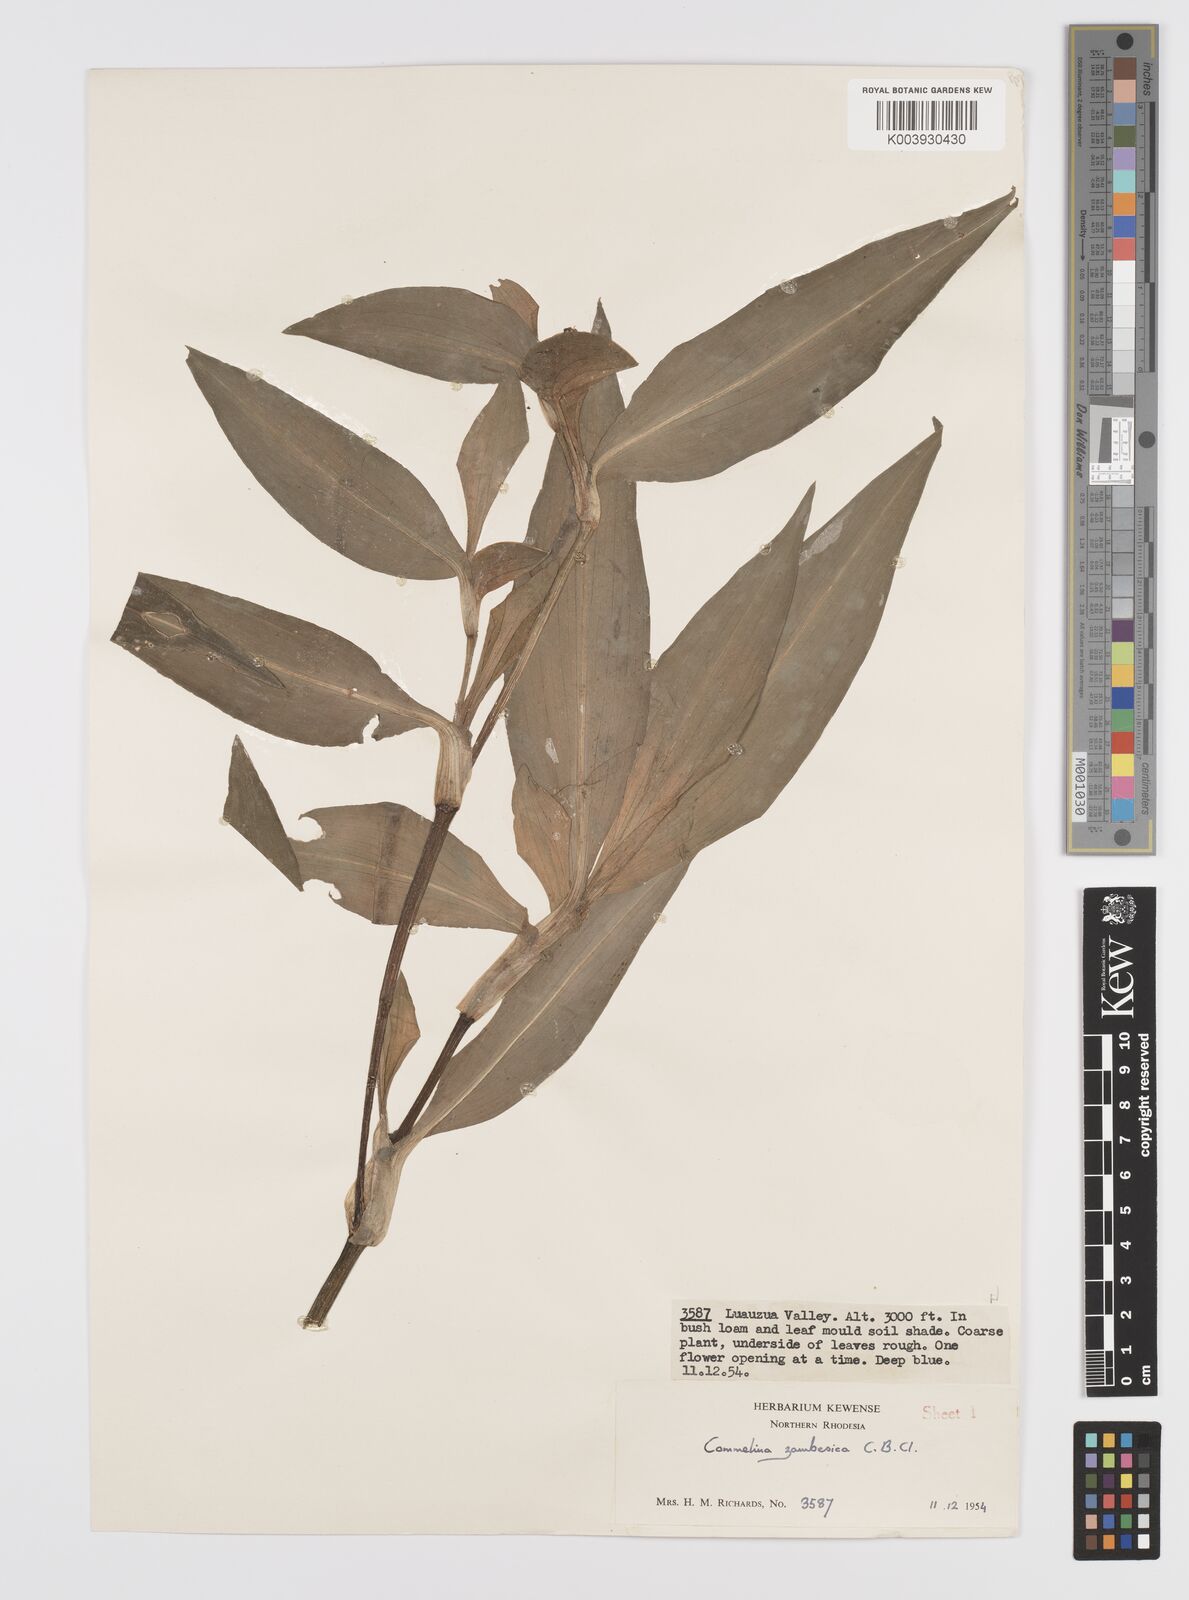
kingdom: Plantae
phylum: Tracheophyta
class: Liliopsida
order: Commelinales
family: Commelinaceae
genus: Commelina
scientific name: Commelina zambesica
